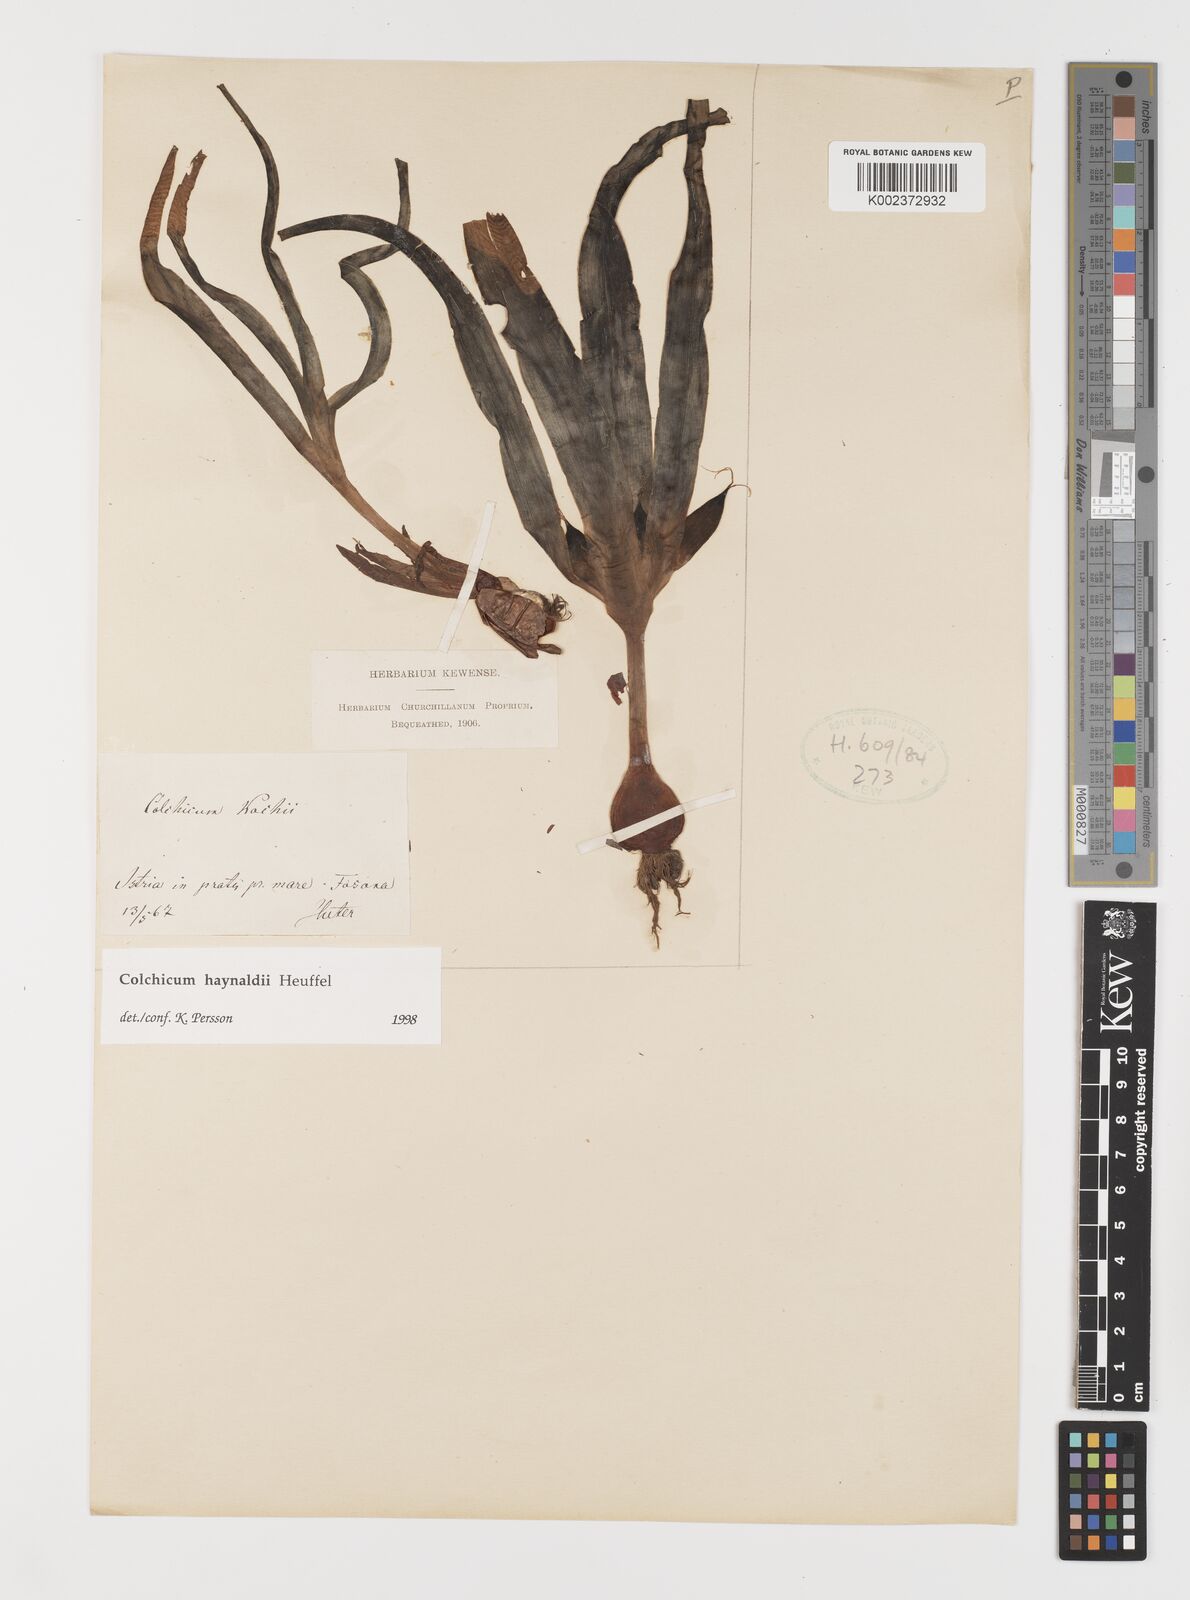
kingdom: Plantae
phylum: Tracheophyta
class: Liliopsida
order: Liliales
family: Colchicaceae
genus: Colchicum
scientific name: Colchicum haynaldii
